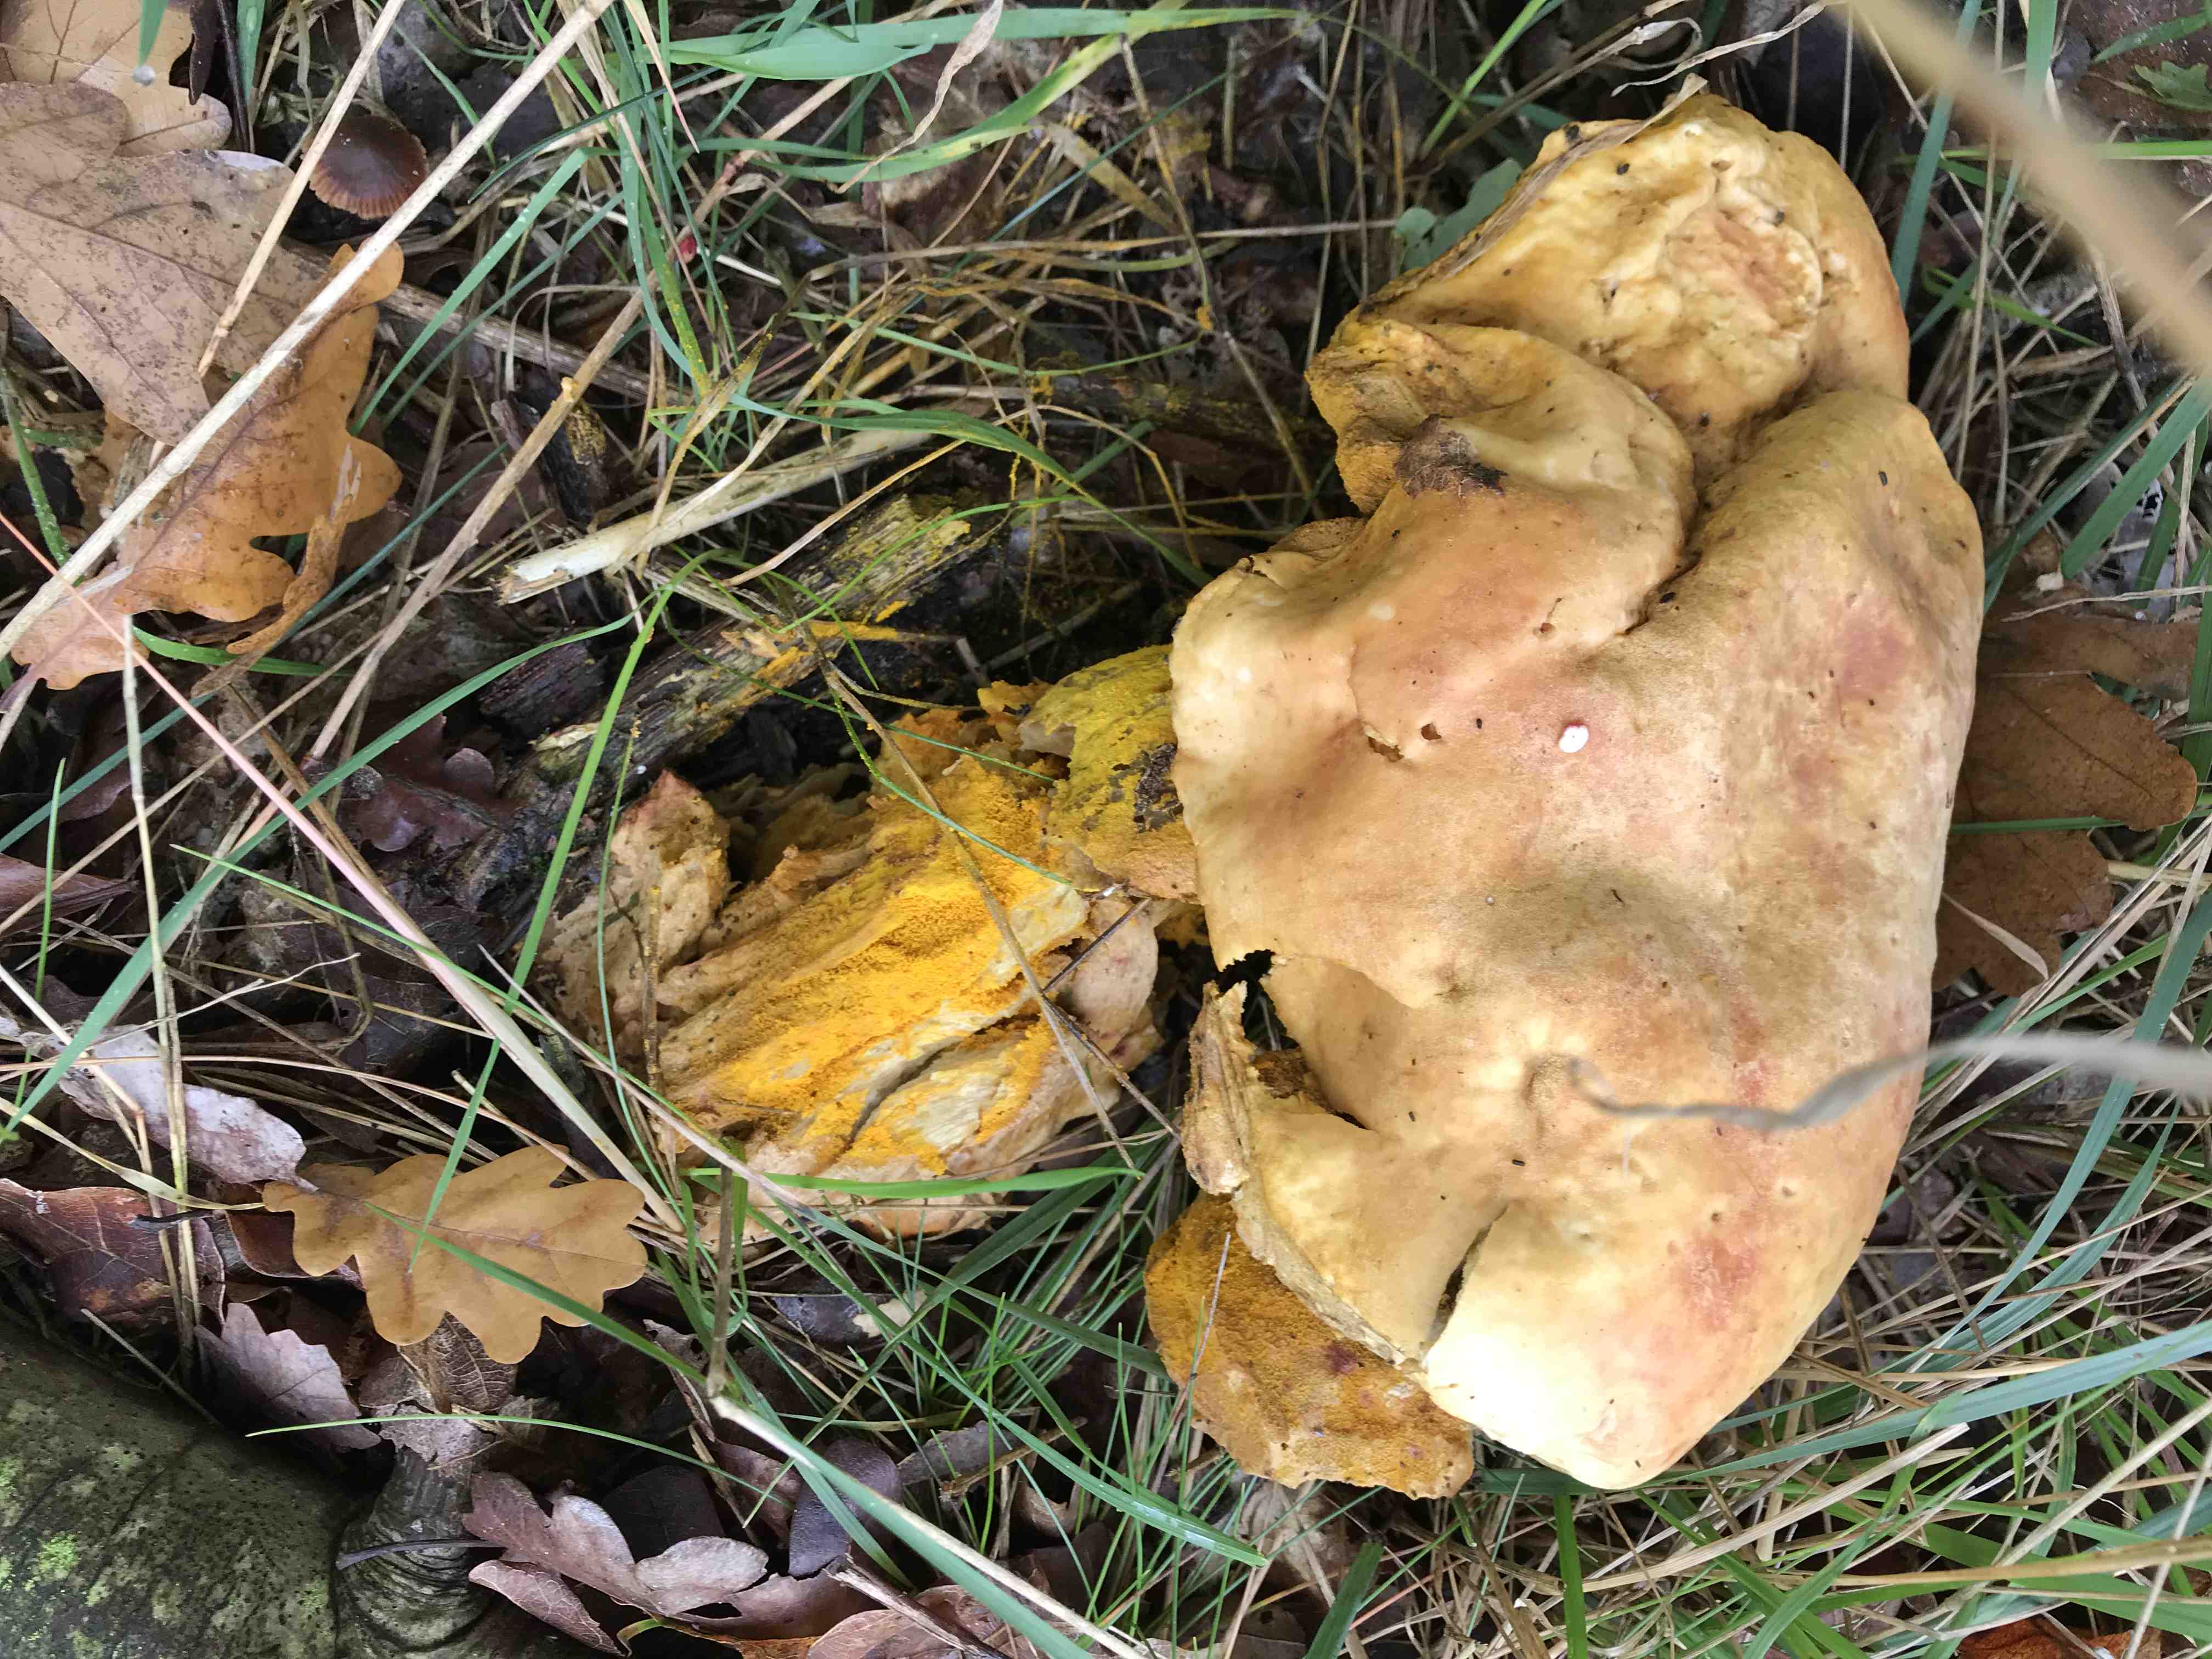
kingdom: Fungi
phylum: Basidiomycota
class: Agaricomycetes
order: Boletales
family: Boletaceae
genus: Boletus
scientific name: Boletus edulis
